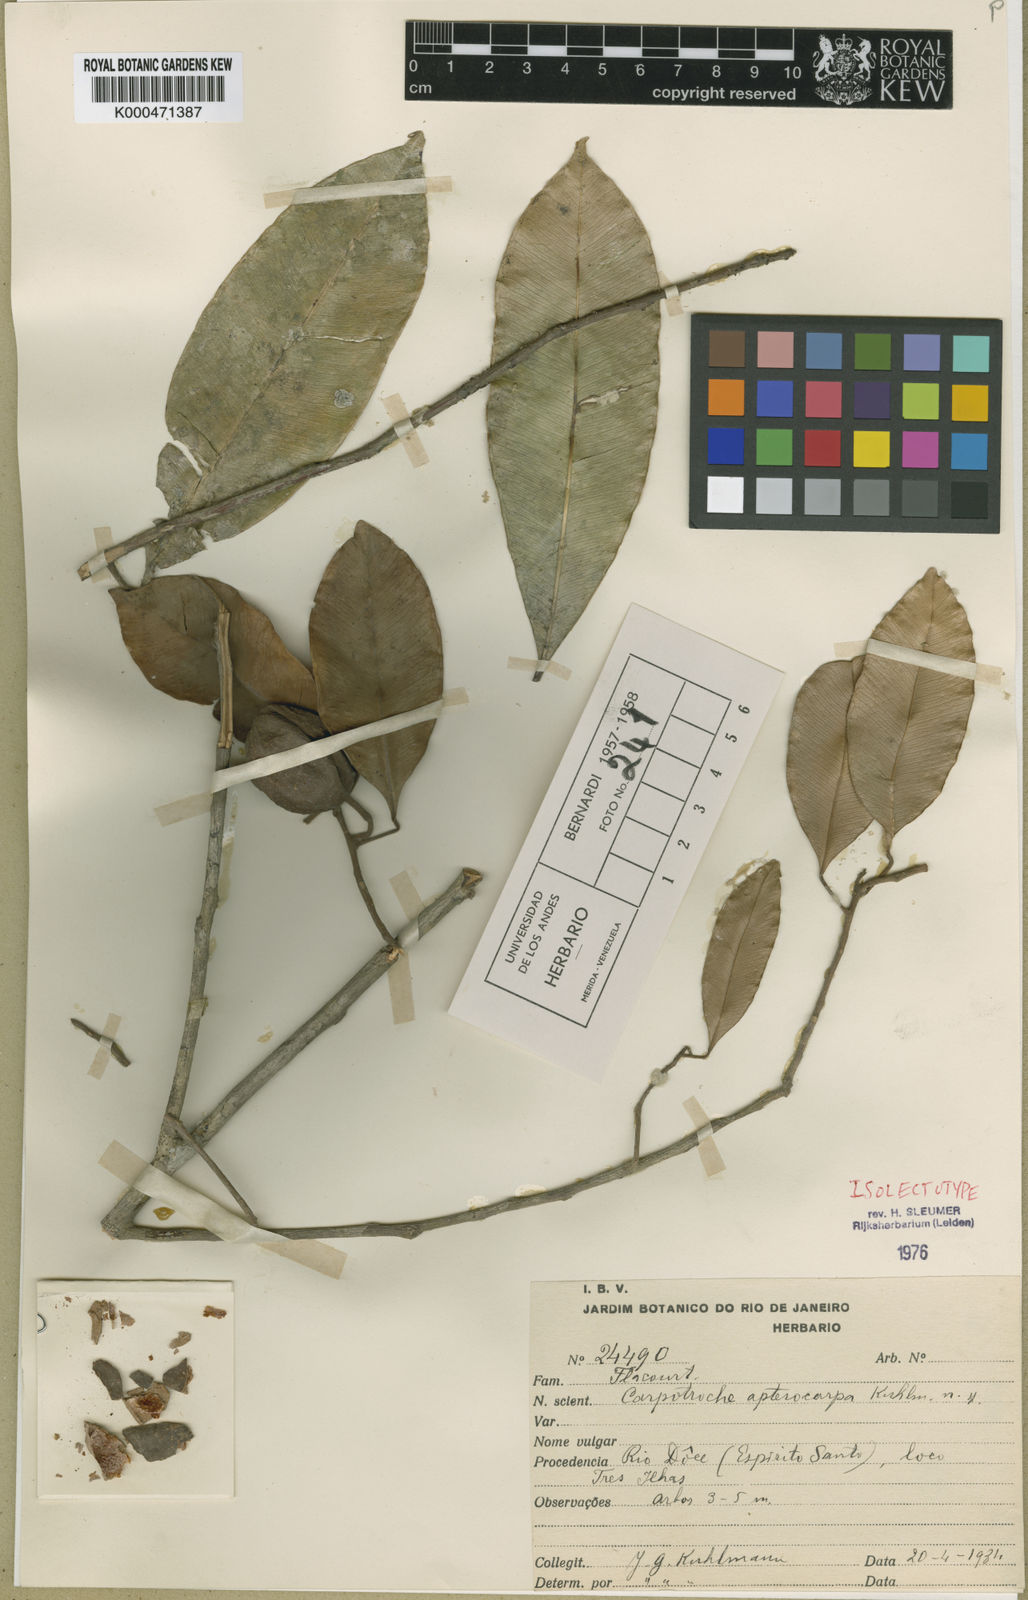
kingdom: Plantae
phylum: Tracheophyta
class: Magnoliopsida
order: Malpighiales
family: Achariaceae
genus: Kuhlmanniodendron
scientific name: Kuhlmanniodendron apterocarpum
